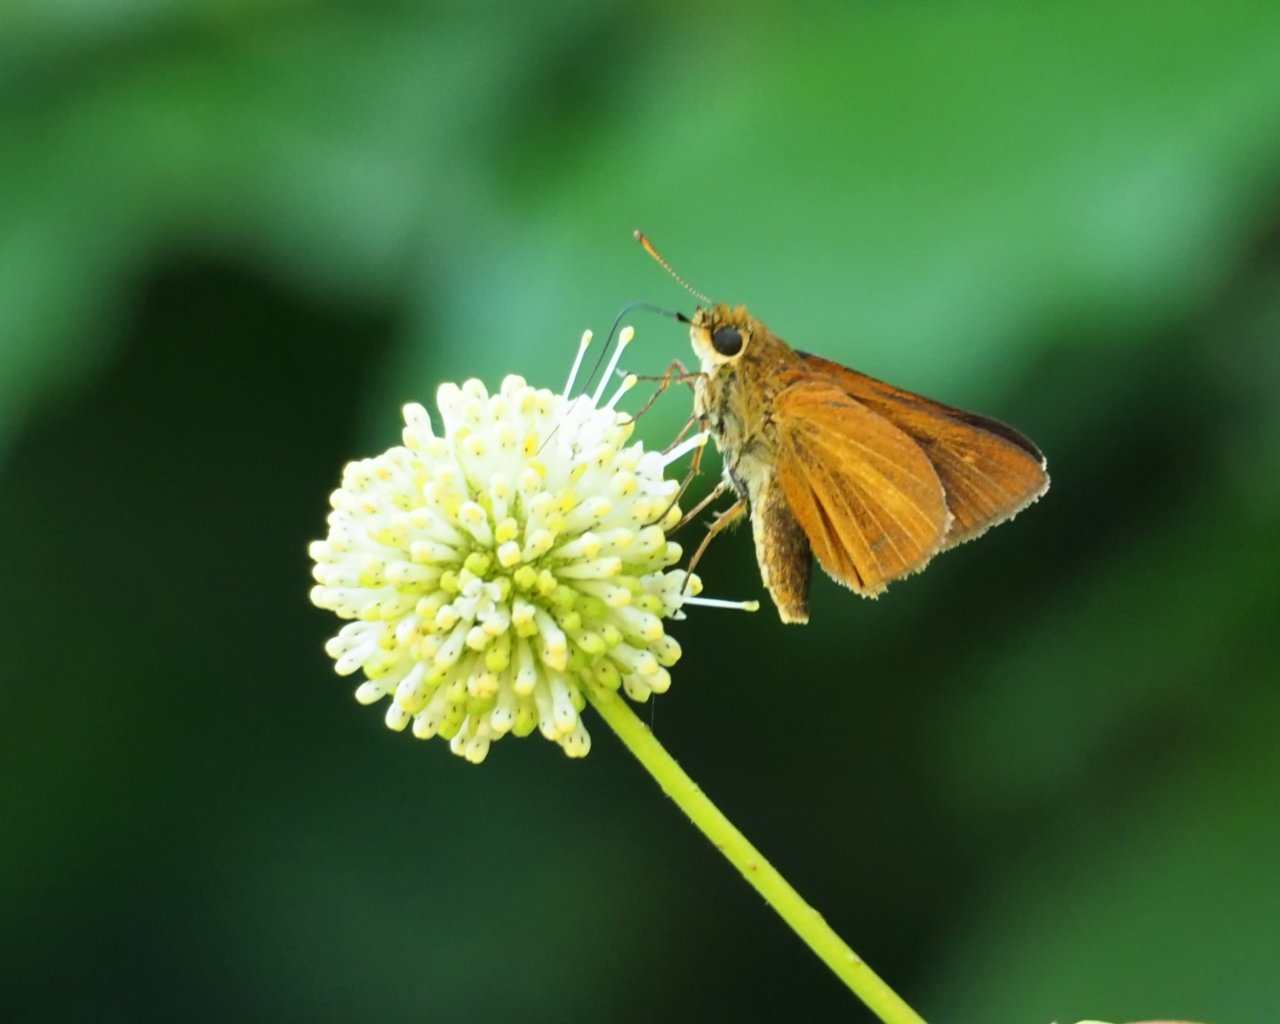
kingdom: Animalia
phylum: Arthropoda
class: Insecta
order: Lepidoptera
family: Hesperiidae
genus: Euphyes
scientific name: Euphyes dion
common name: Dion Skipper
